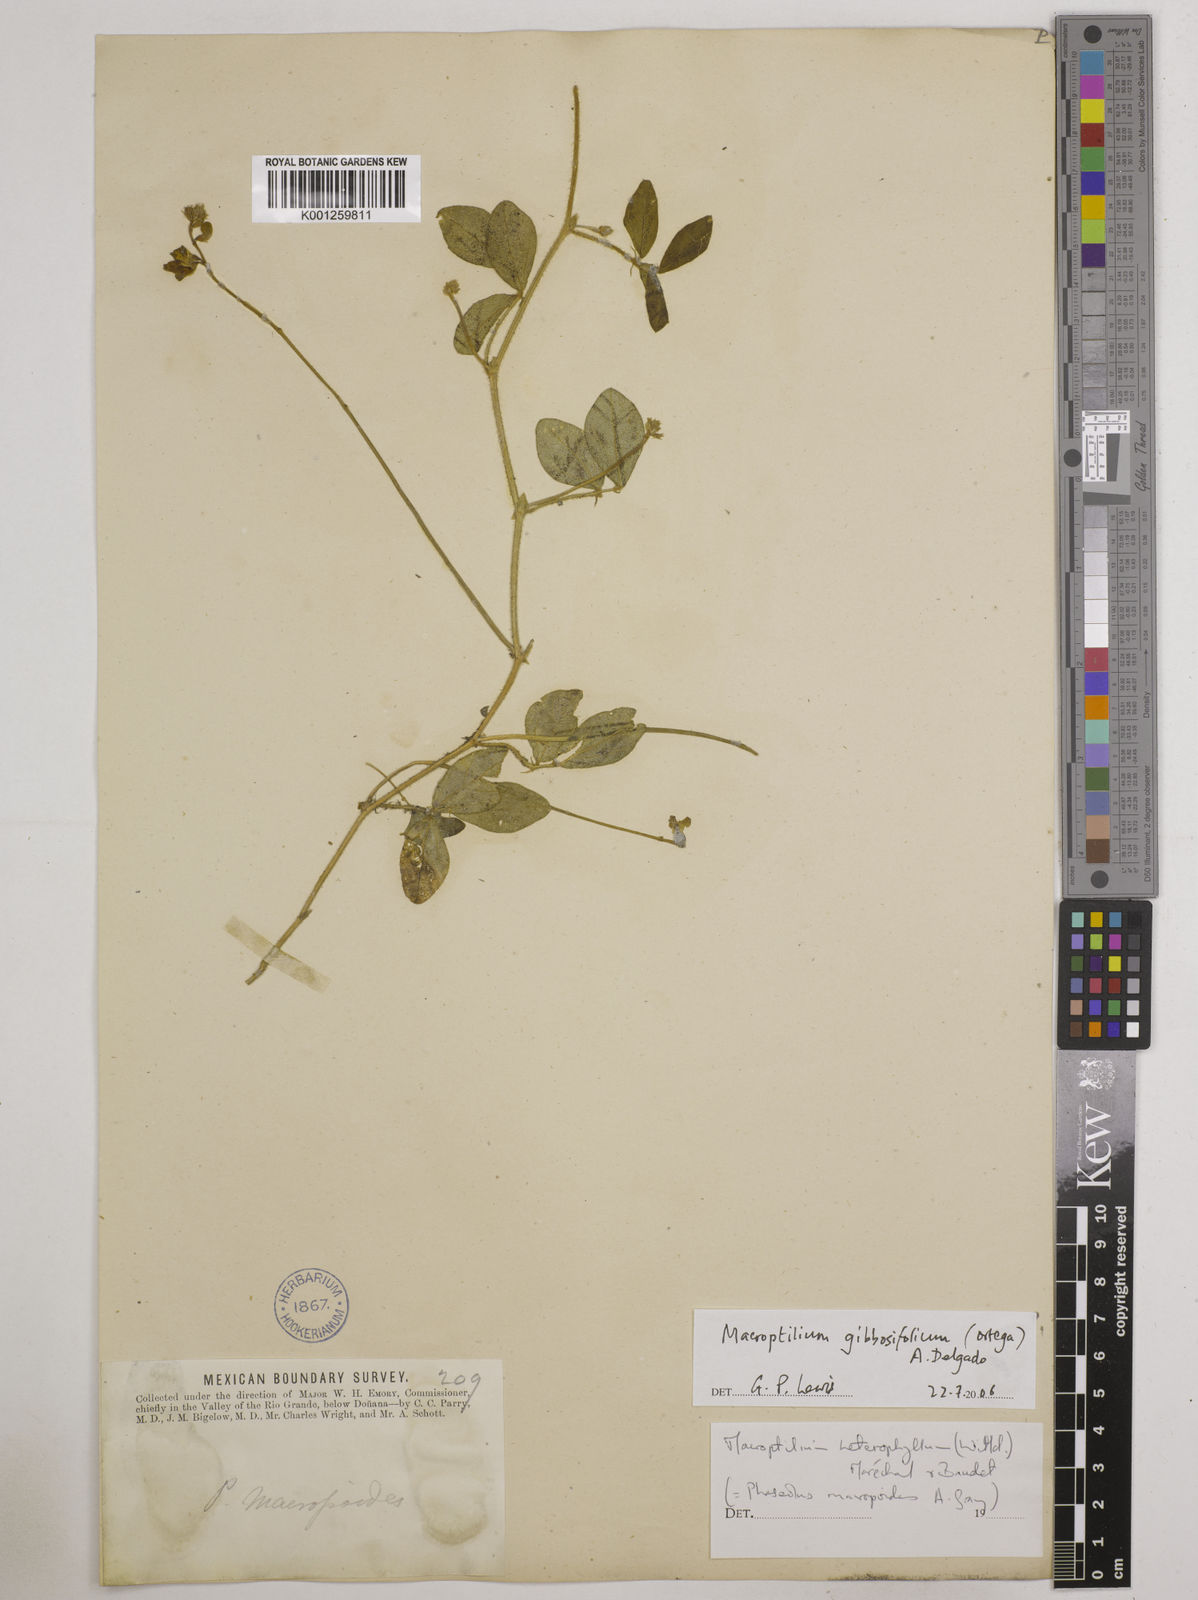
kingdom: Plantae
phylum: Tracheophyta
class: Magnoliopsida
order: Fabales
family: Fabaceae
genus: Macroptilium
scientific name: Macroptilium gibbosifolium
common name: Variableleaf bushbean
